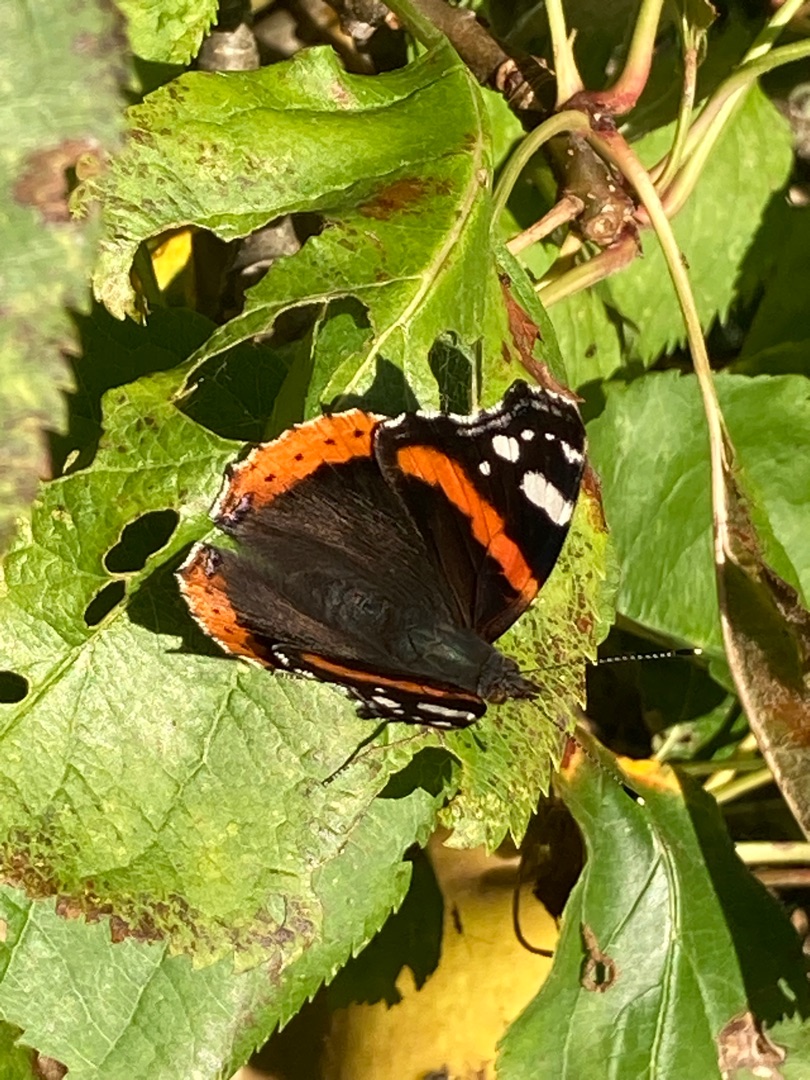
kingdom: Animalia
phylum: Arthropoda
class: Insecta
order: Lepidoptera
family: Nymphalidae
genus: Vanessa
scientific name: Vanessa atalanta
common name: Admiral
